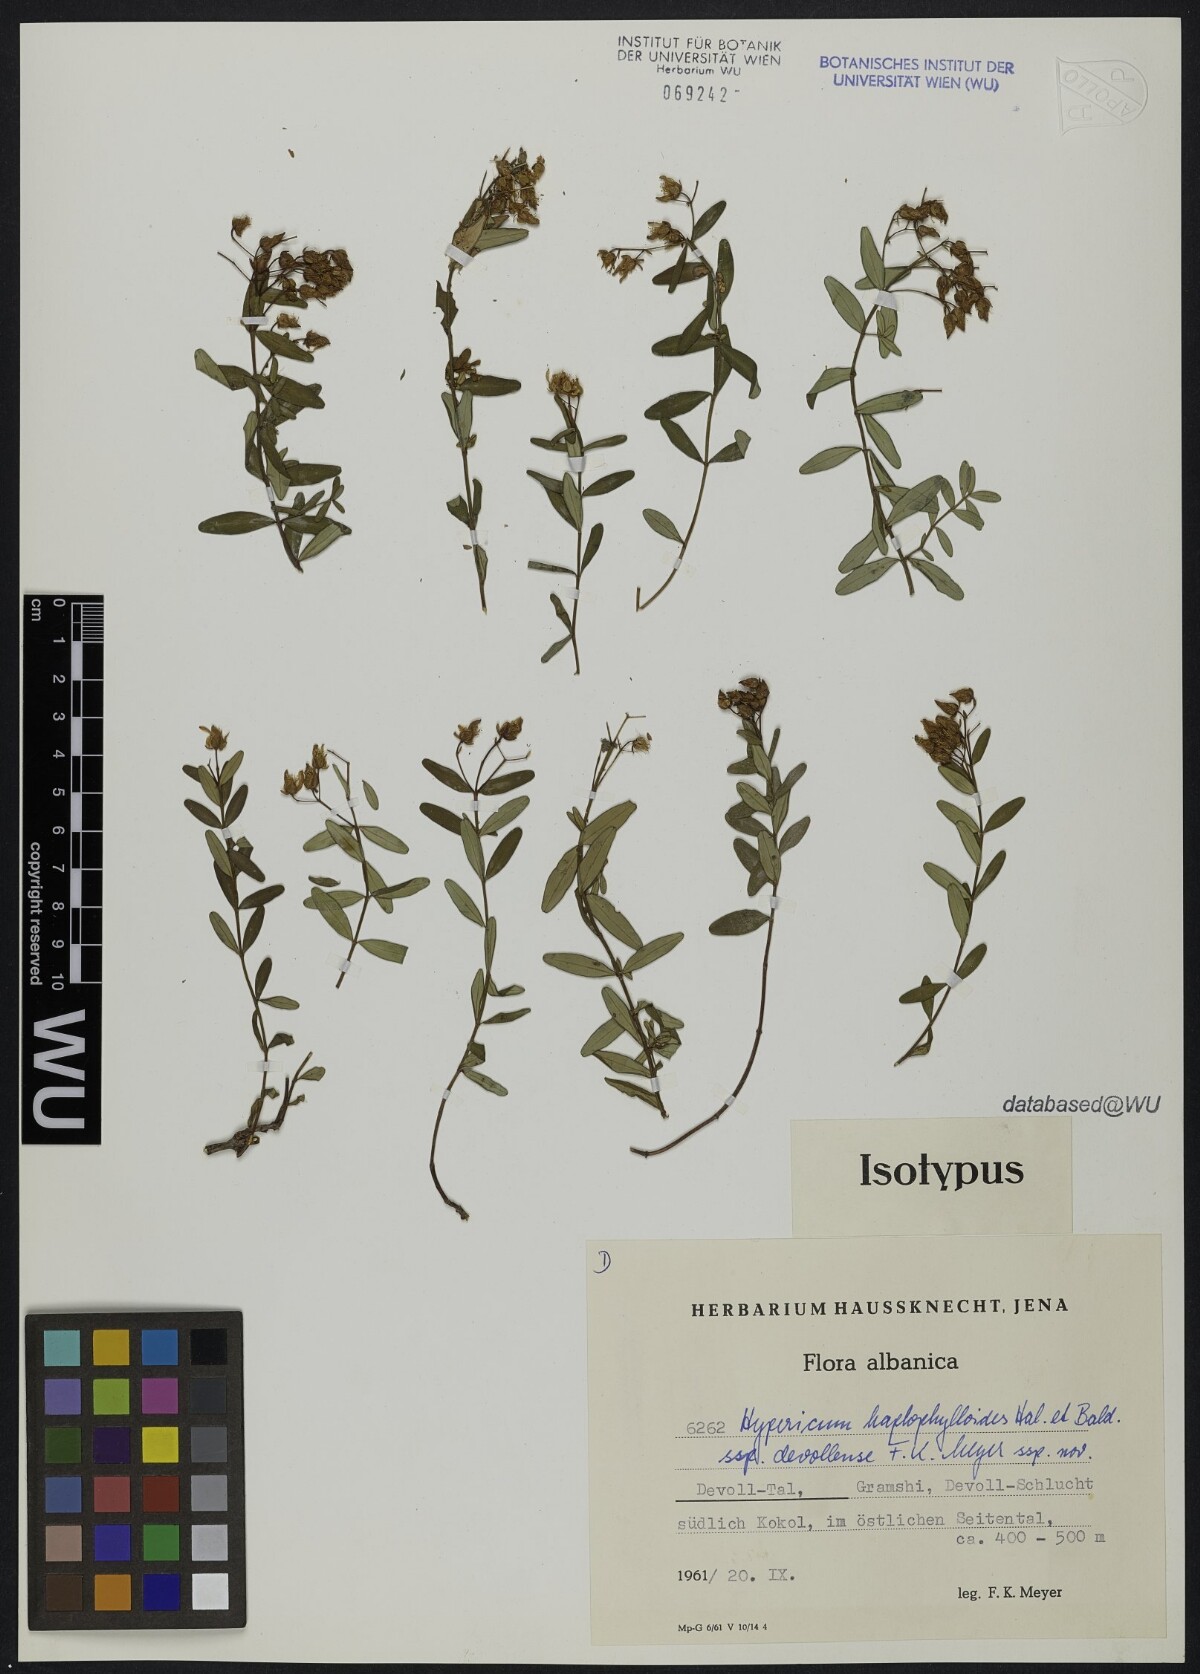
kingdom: Plantae
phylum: Tracheophyta
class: Magnoliopsida
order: Malpighiales
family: Hypericaceae
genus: Hypericum
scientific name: Hypericum haplophylloides
